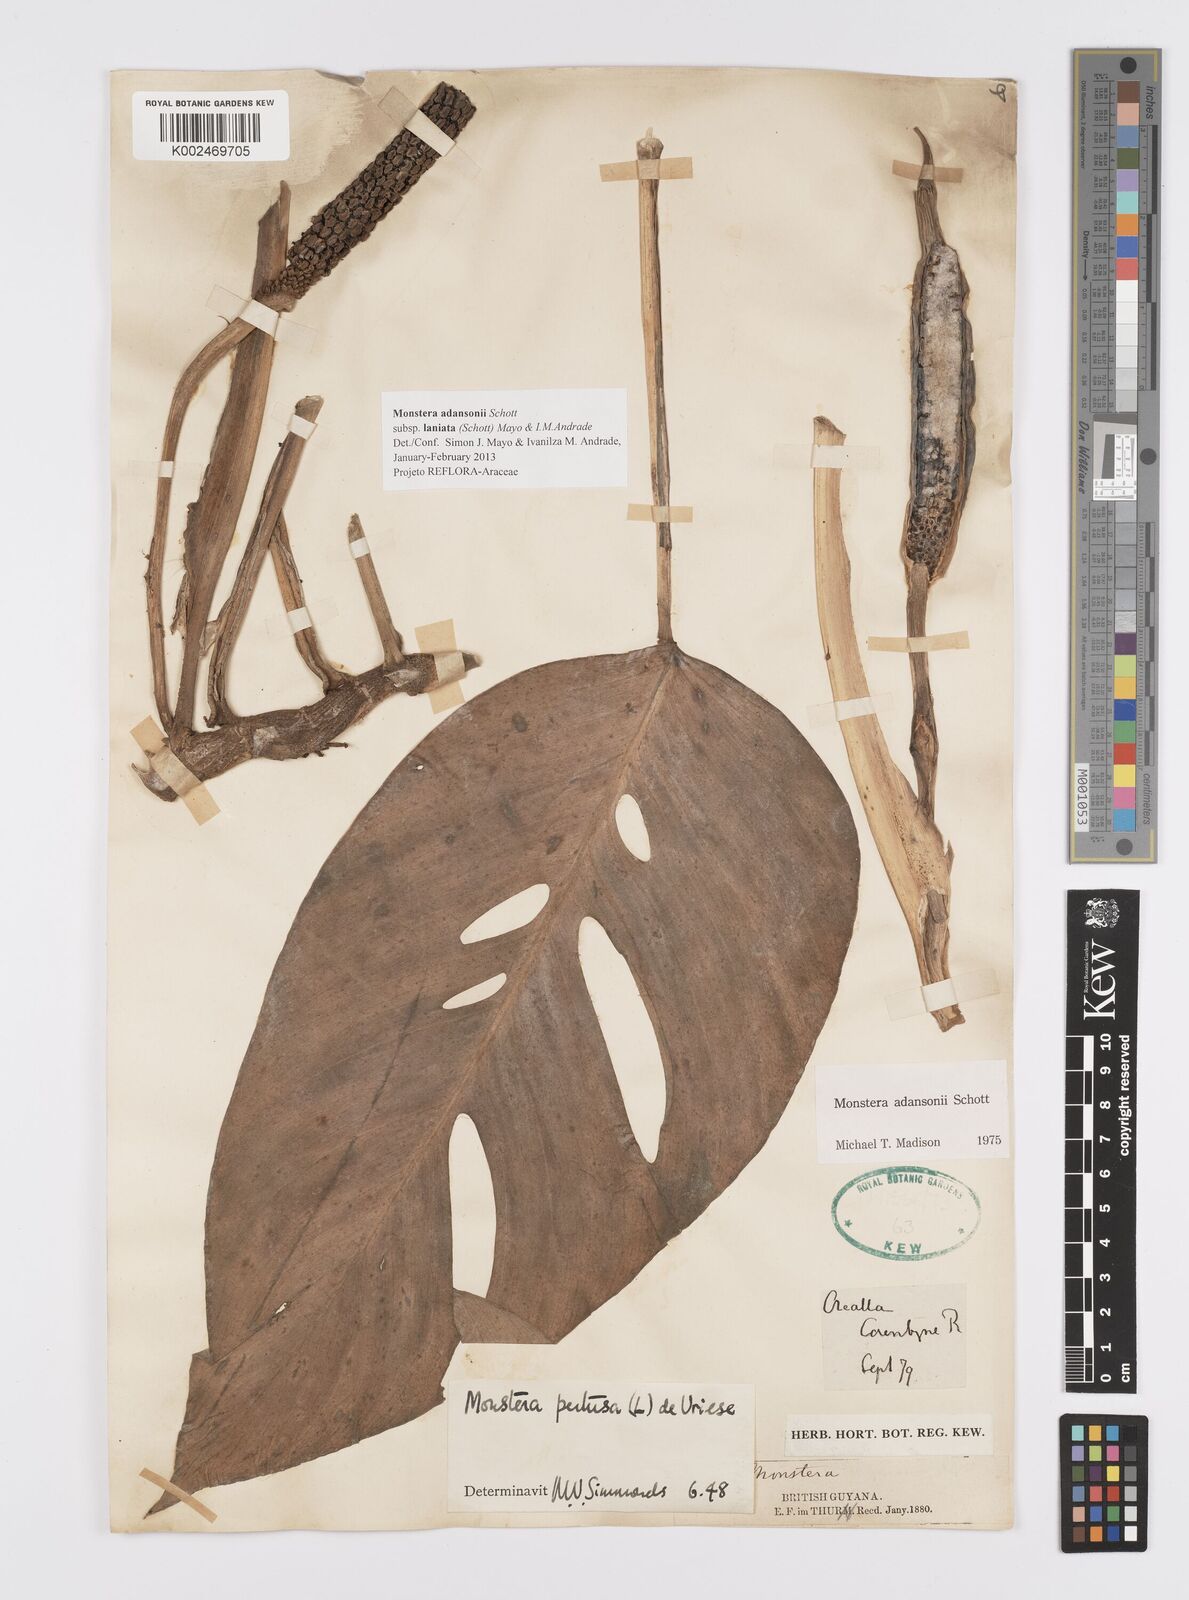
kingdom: Plantae
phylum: Tracheophyta
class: Liliopsida
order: Alismatales
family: Araceae
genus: Monstera
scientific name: Monstera adansonii
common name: Tarovine
